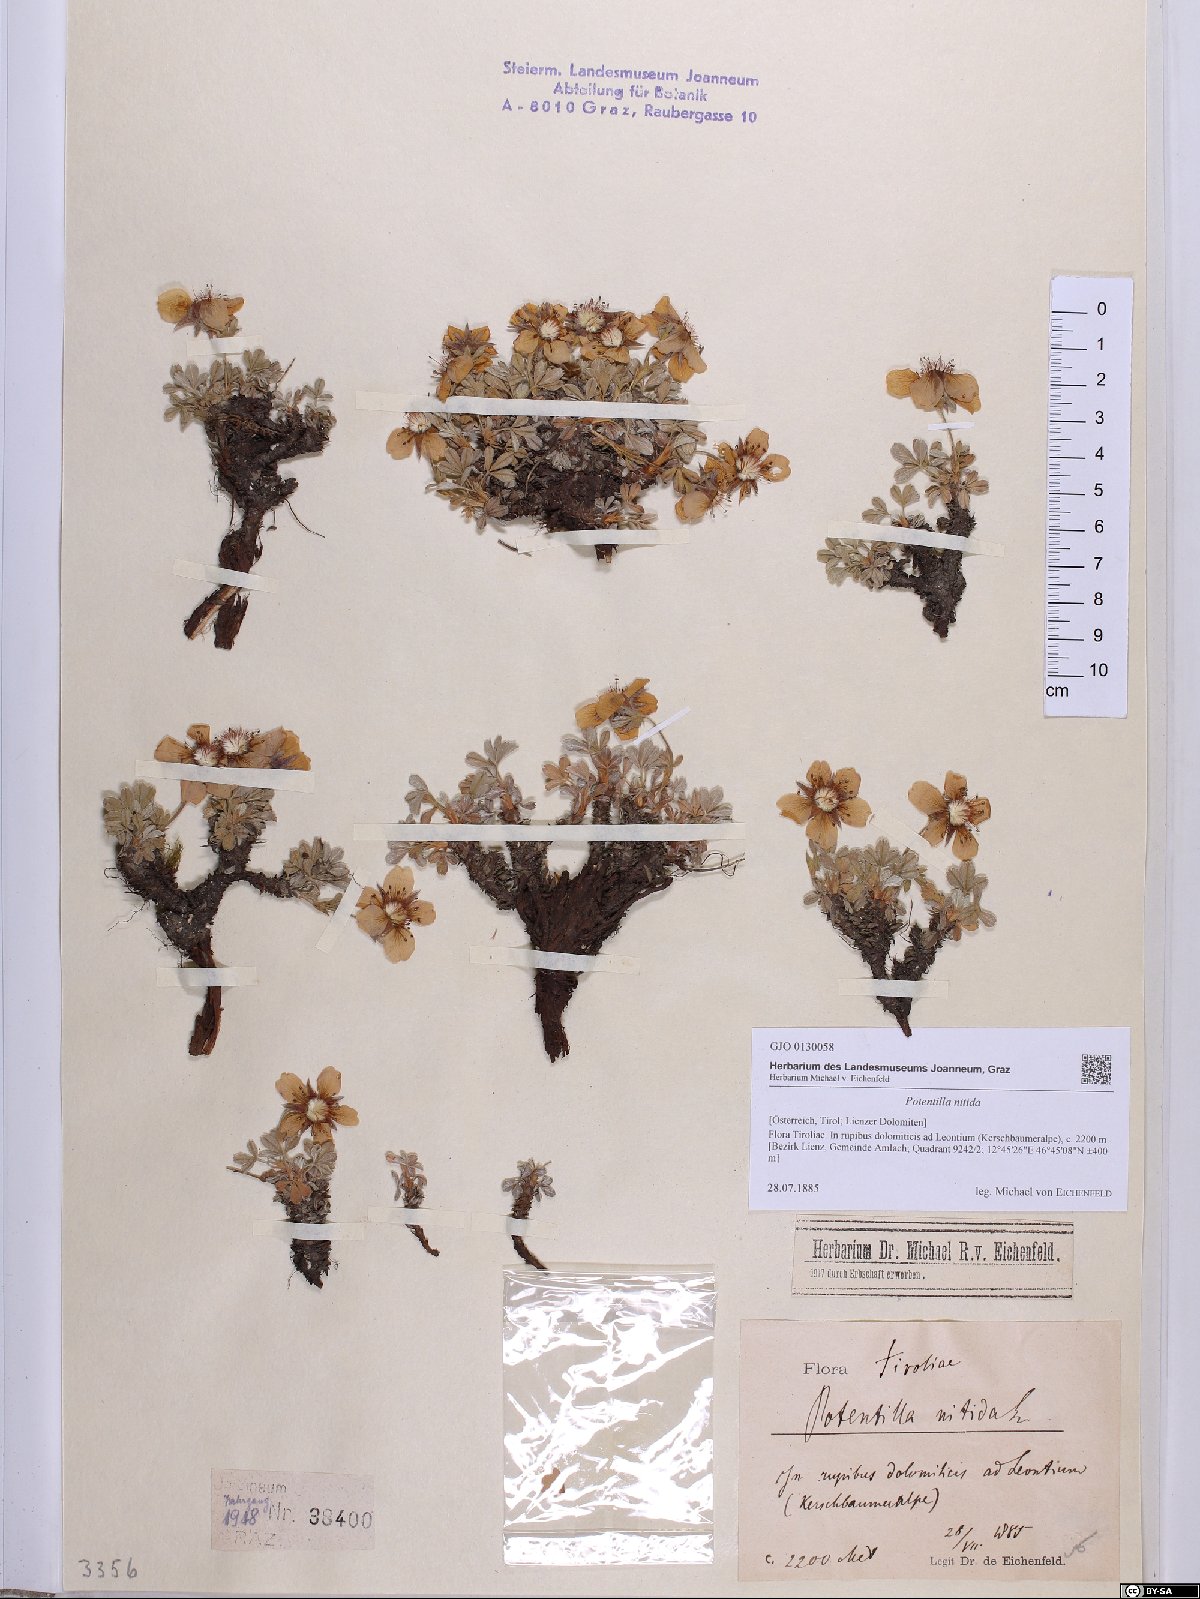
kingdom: Plantae
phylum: Tracheophyta
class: Magnoliopsida
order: Rosales
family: Rosaceae
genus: Potentilla
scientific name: Potentilla nitida
